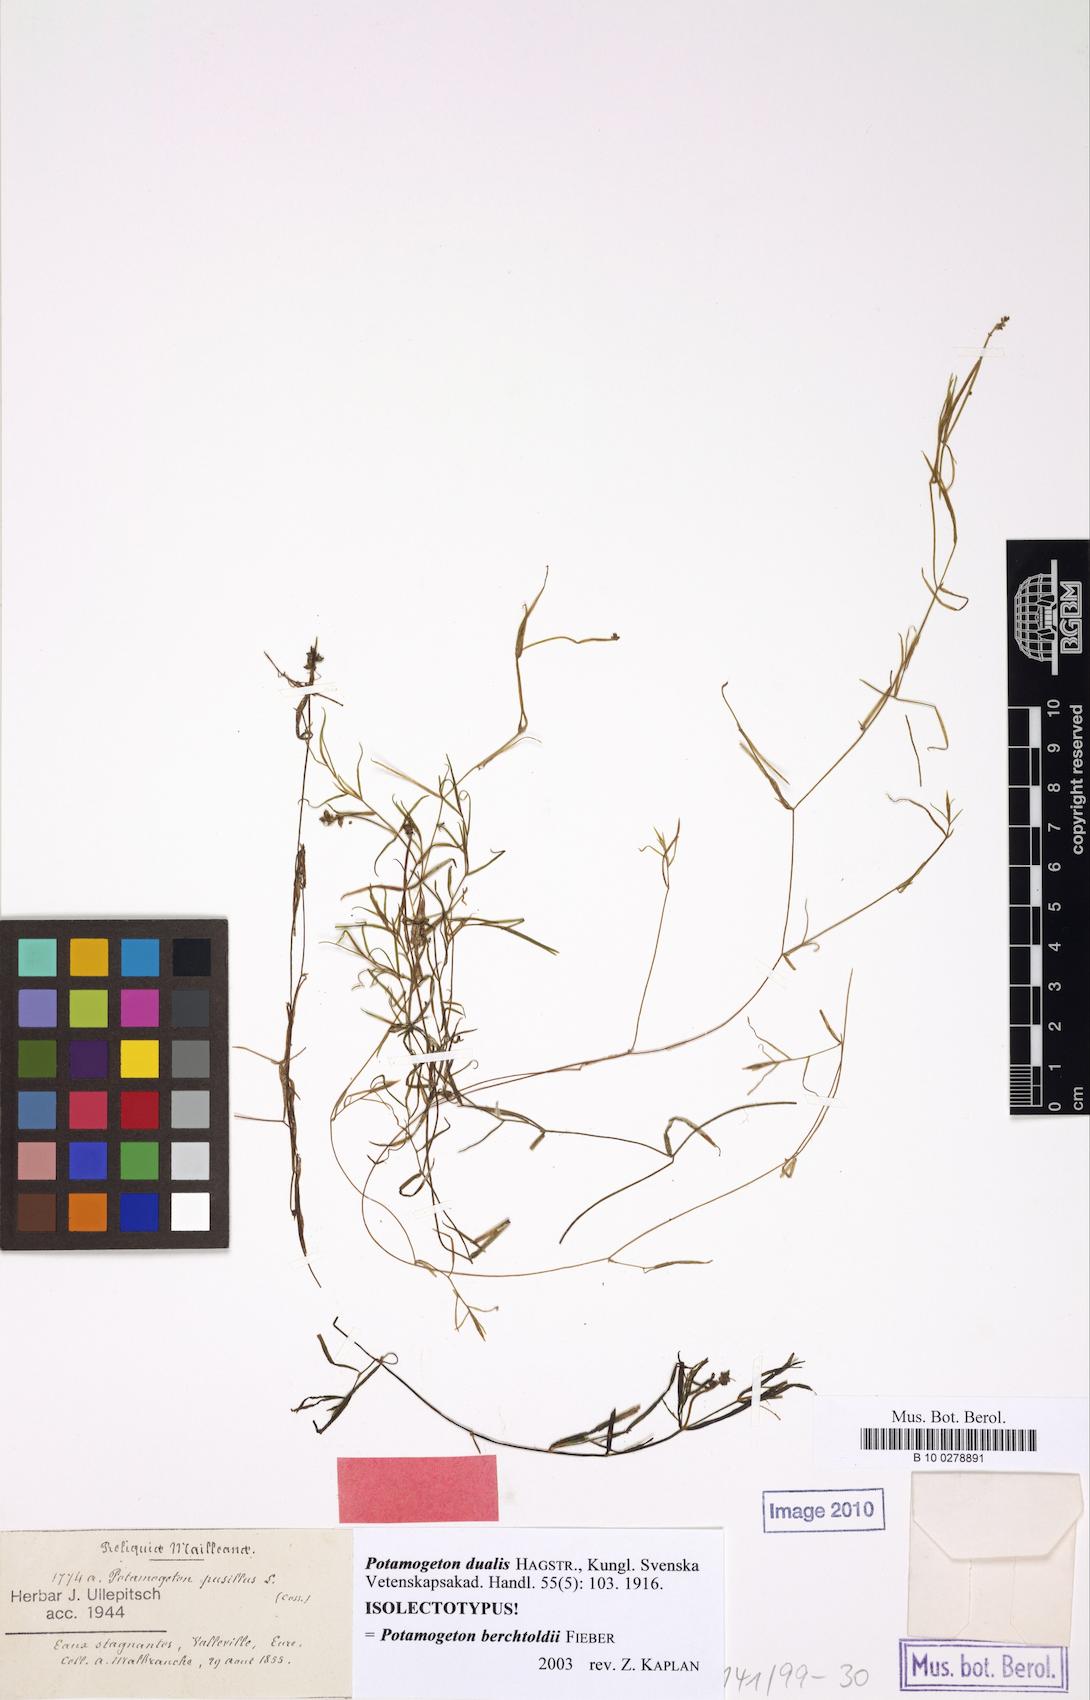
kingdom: Plantae
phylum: Tracheophyta
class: Liliopsida
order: Alismatales
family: Potamogetonaceae
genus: Potamogeton
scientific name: Potamogeton berchtoldii
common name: Small pondweed
